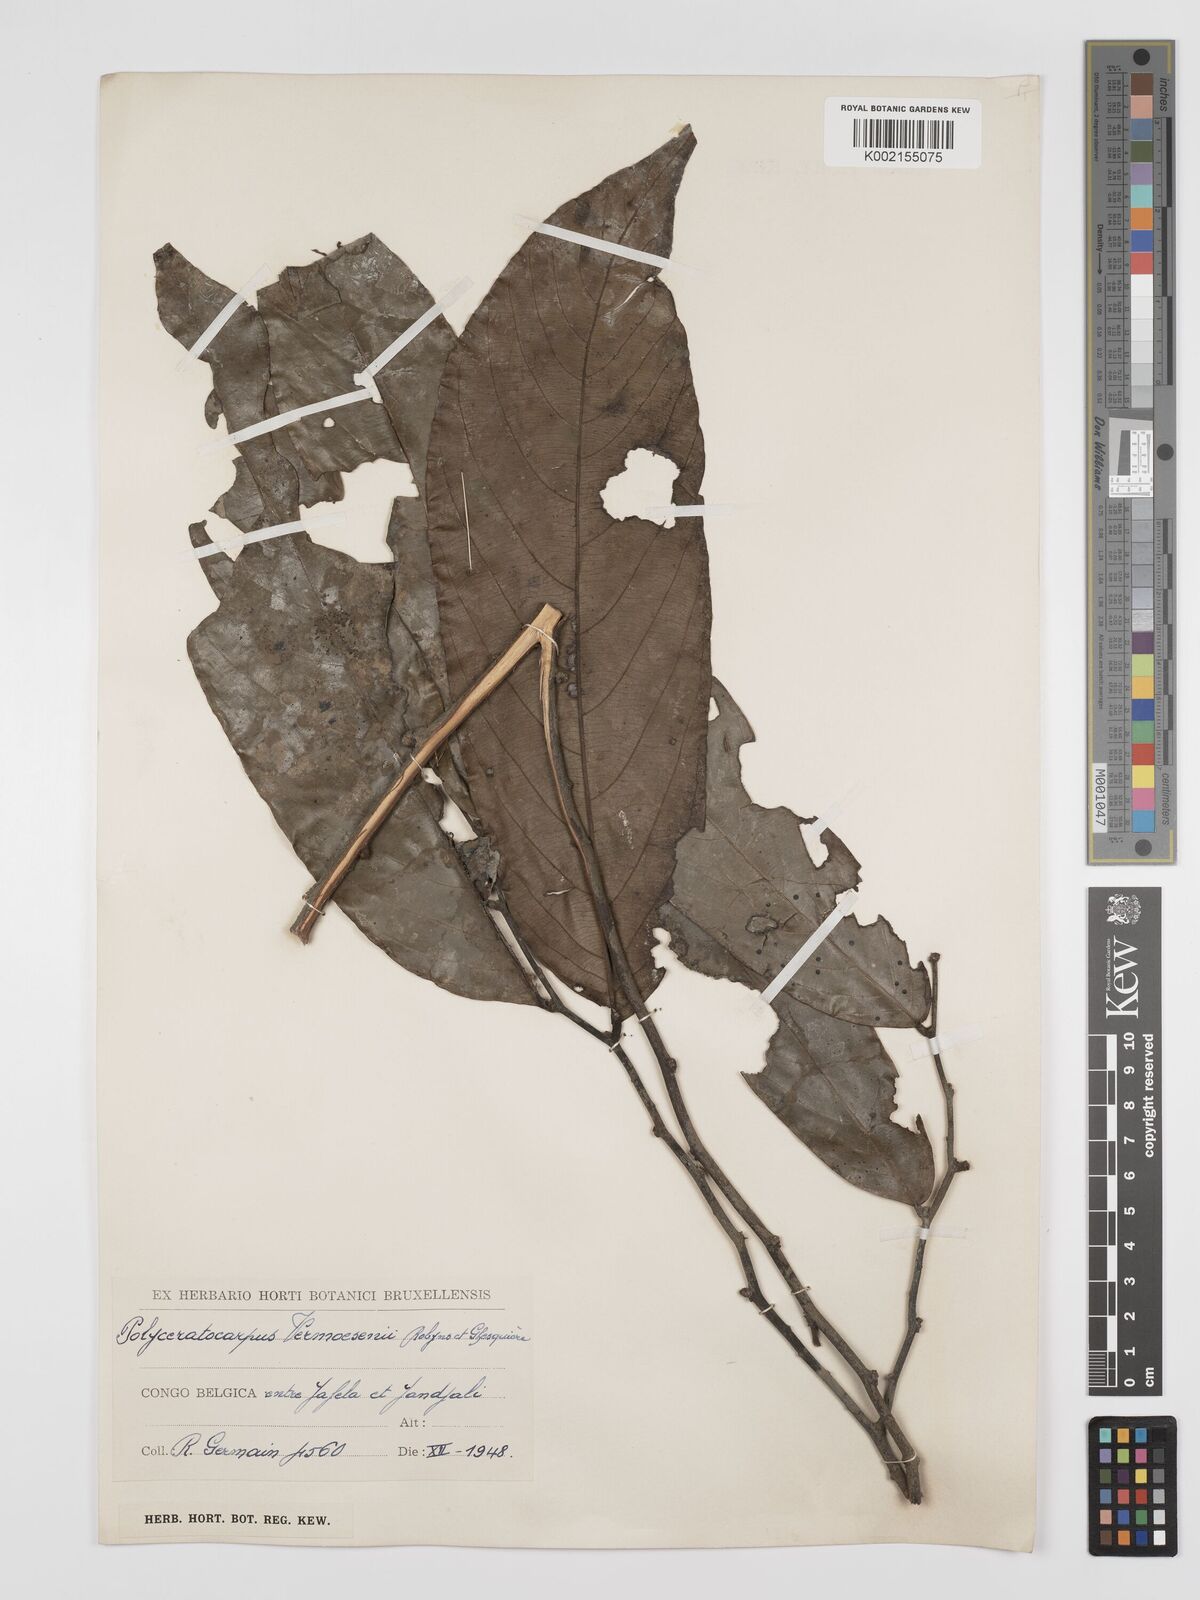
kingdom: Plantae
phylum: Tracheophyta
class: Magnoliopsida
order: Magnoliales
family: Annonaceae
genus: Polyceratocarpus
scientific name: Polyceratocarpus gossweileri
